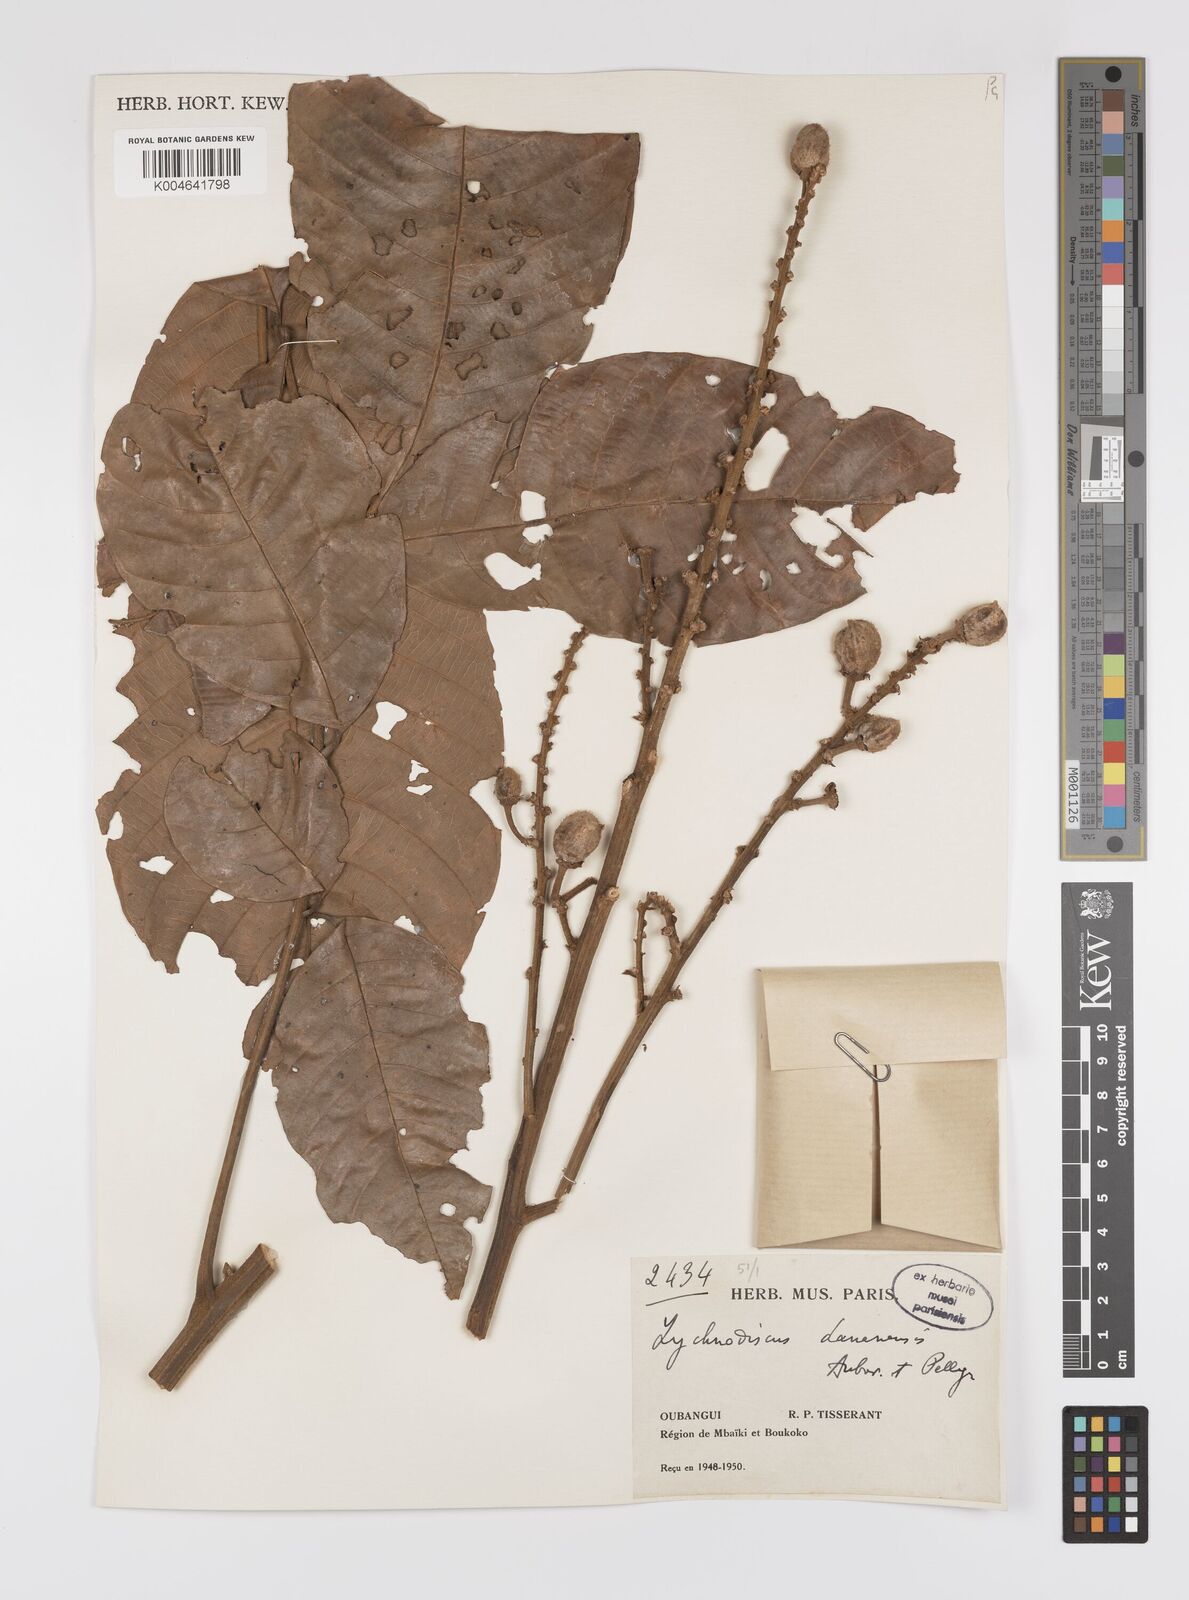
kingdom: Plantae
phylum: Tracheophyta
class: Magnoliopsida
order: Sapindales
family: Sapindaceae
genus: Lychnodiscus
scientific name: Lychnodiscus dananensis
